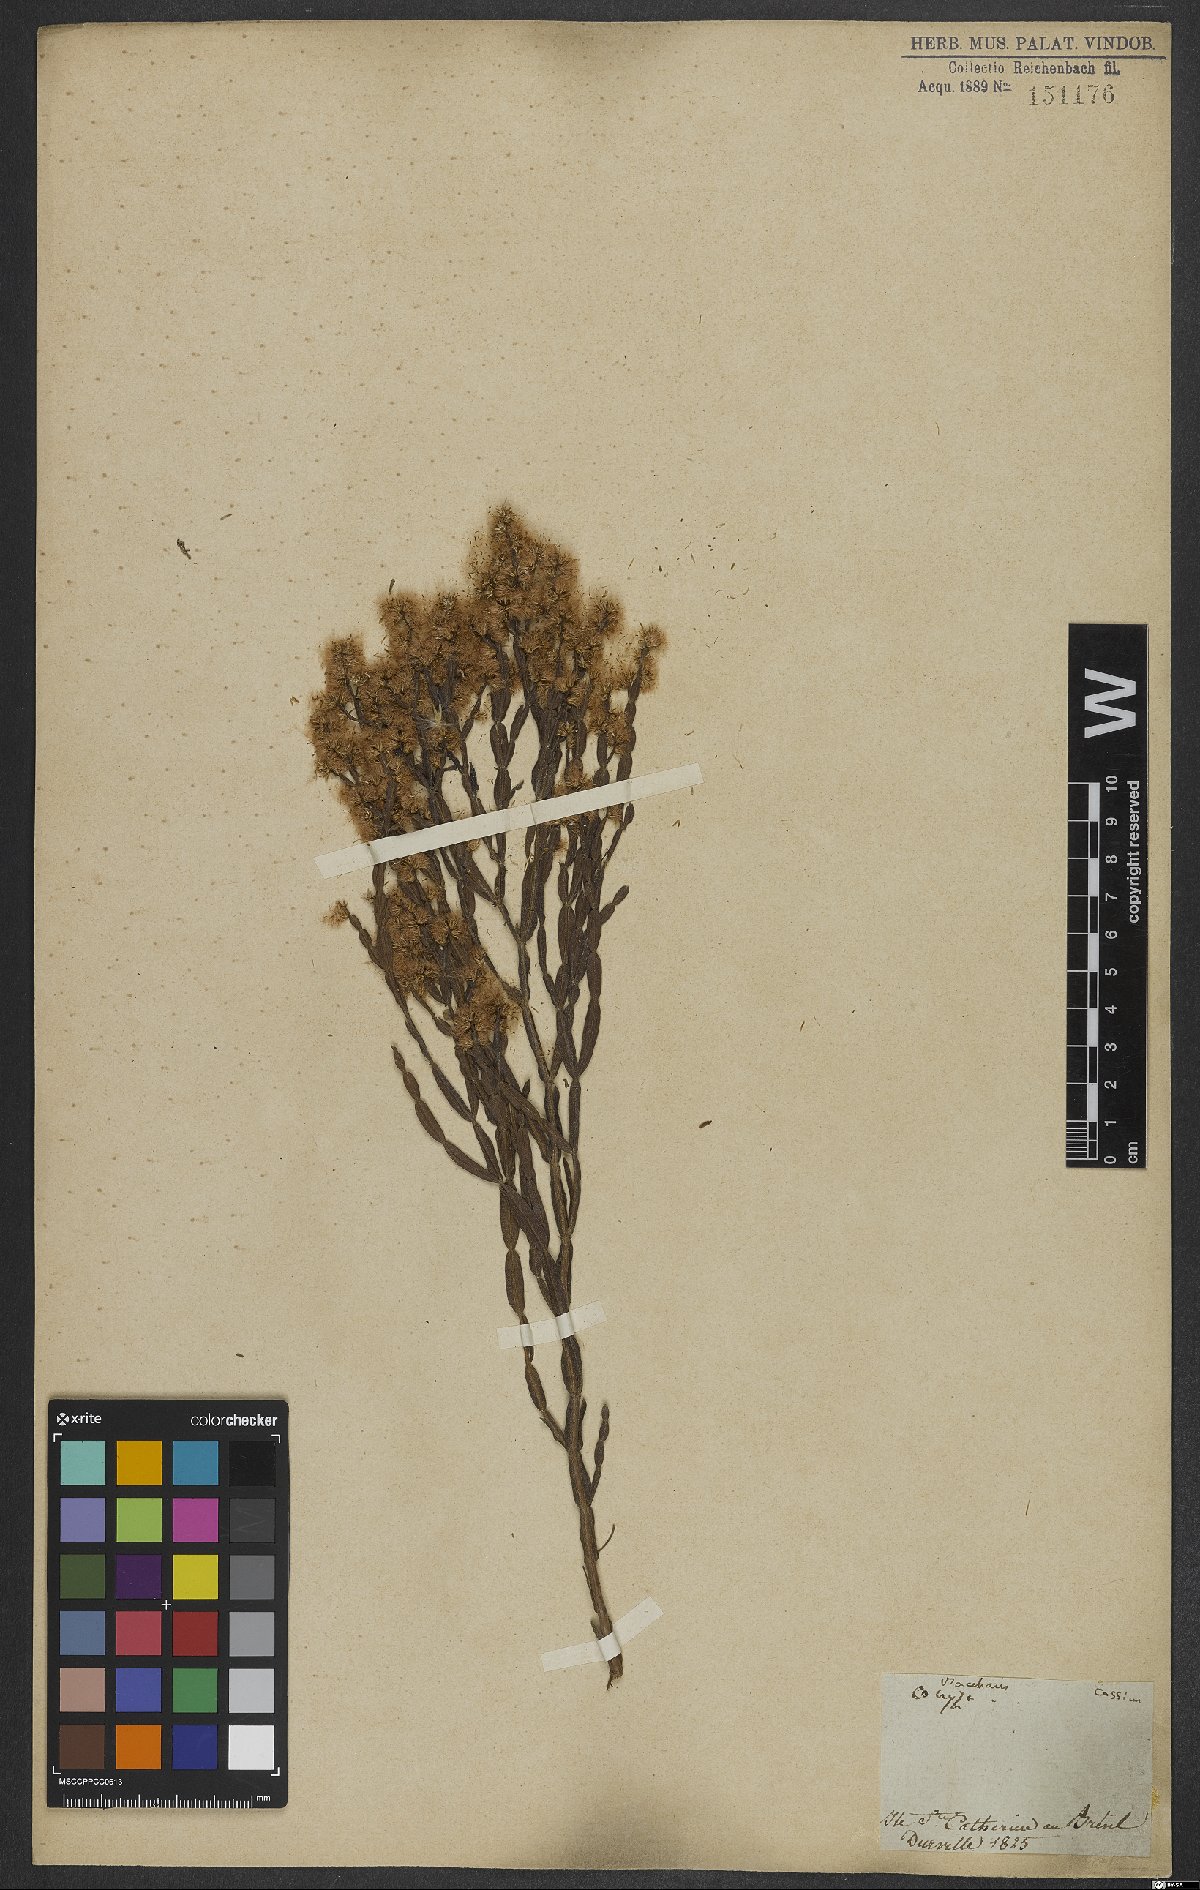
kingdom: Plantae
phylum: Tracheophyta
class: Magnoliopsida
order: Asterales
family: Asteraceae
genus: Conyza
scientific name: Conyza
